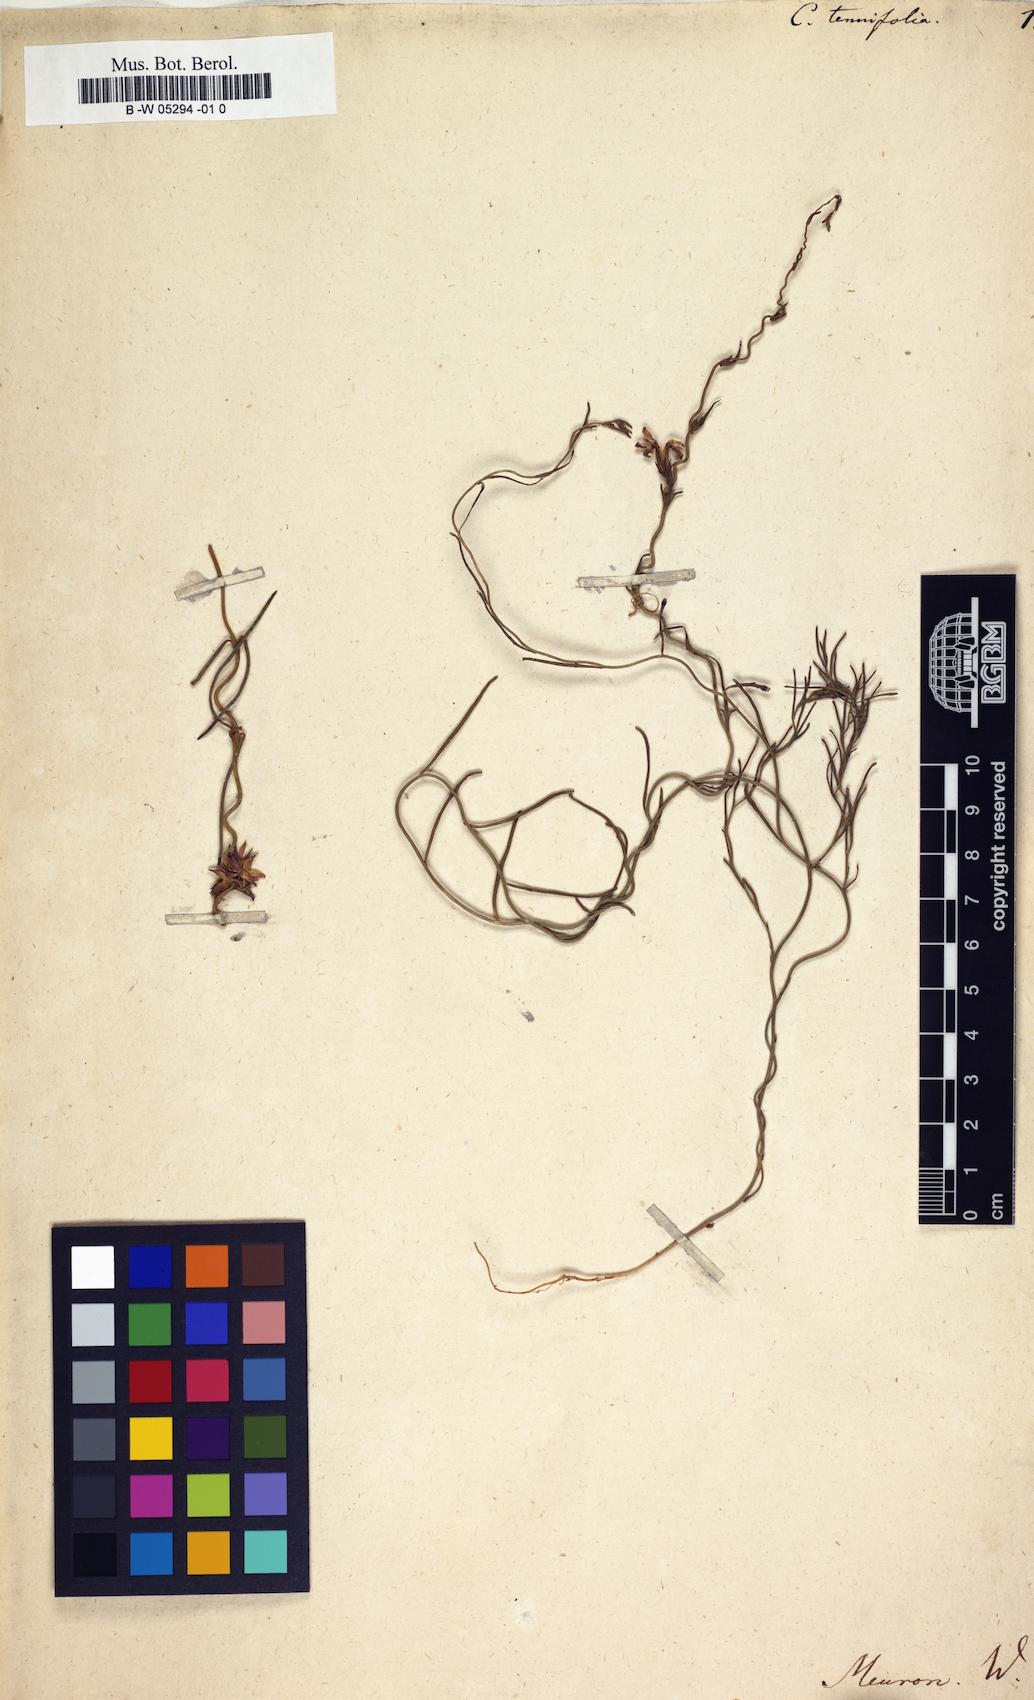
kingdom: Plantae
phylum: Tracheophyta
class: Magnoliopsida
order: Gentianales
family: Apocynaceae
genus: Microloma
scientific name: Microloma tenuifolium
